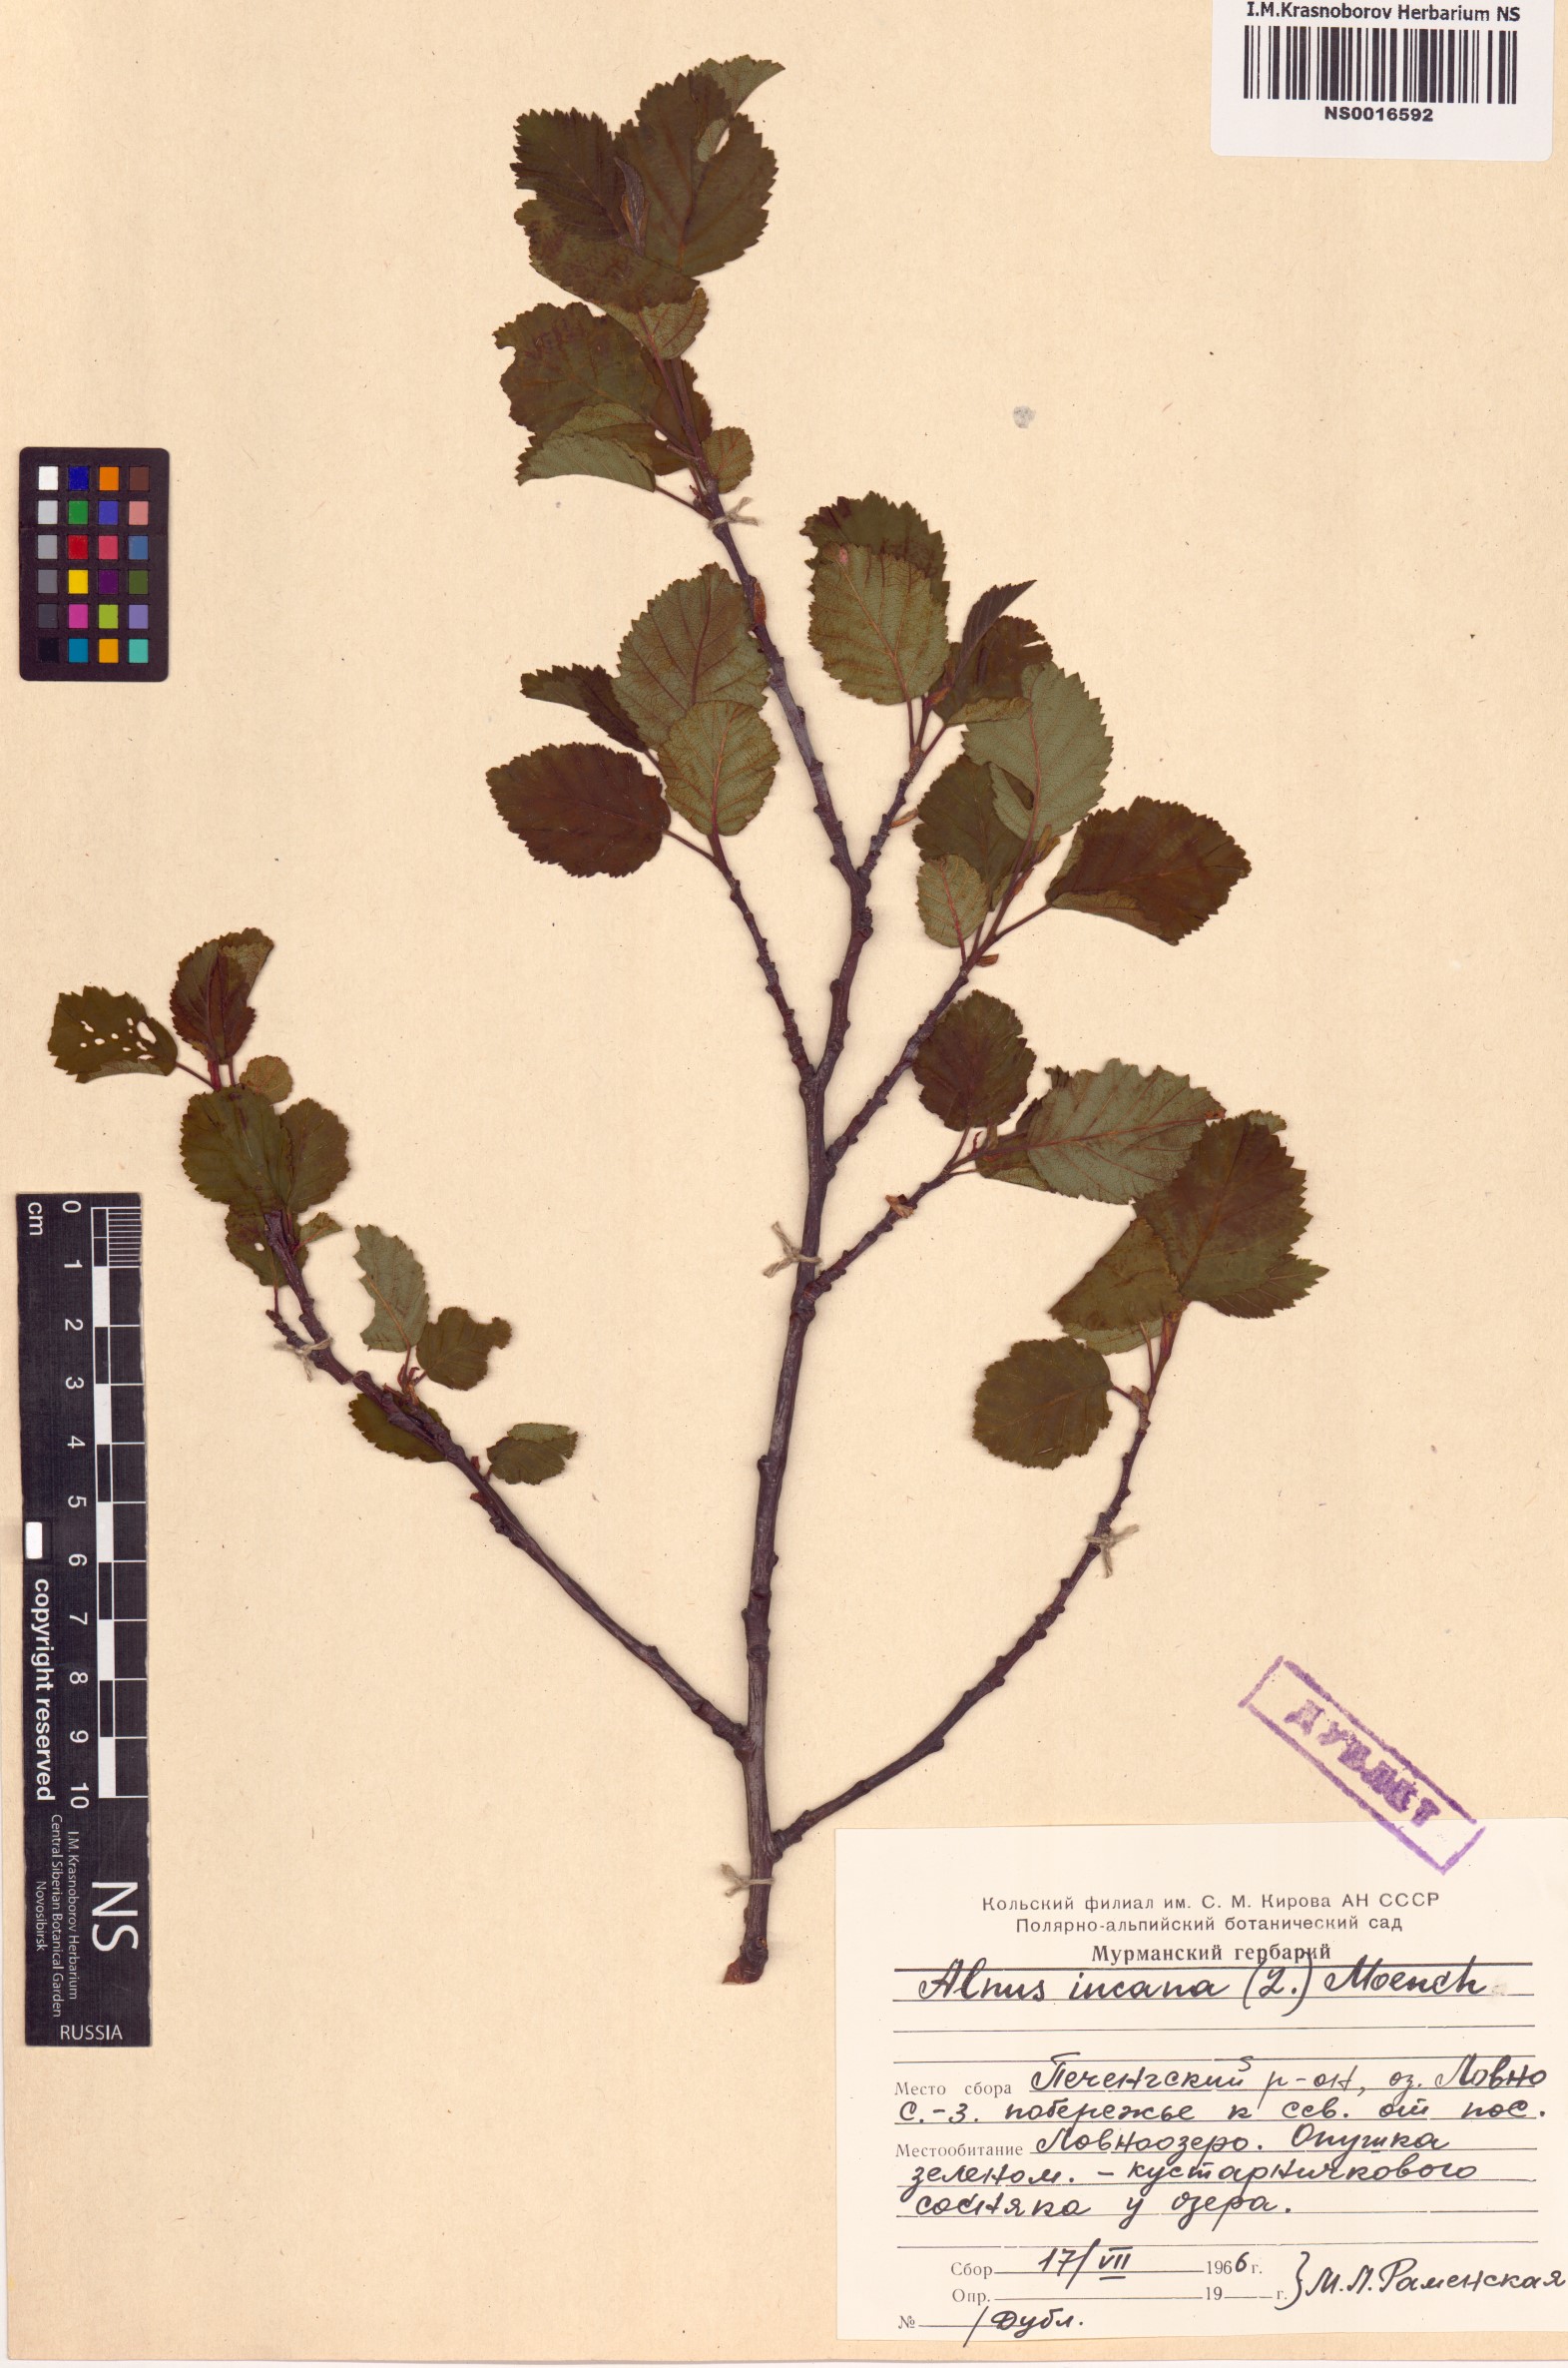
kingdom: Plantae
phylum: Tracheophyta
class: Magnoliopsida
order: Fagales
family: Betulaceae
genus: Alnus
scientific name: Alnus incana
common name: Grey alder
